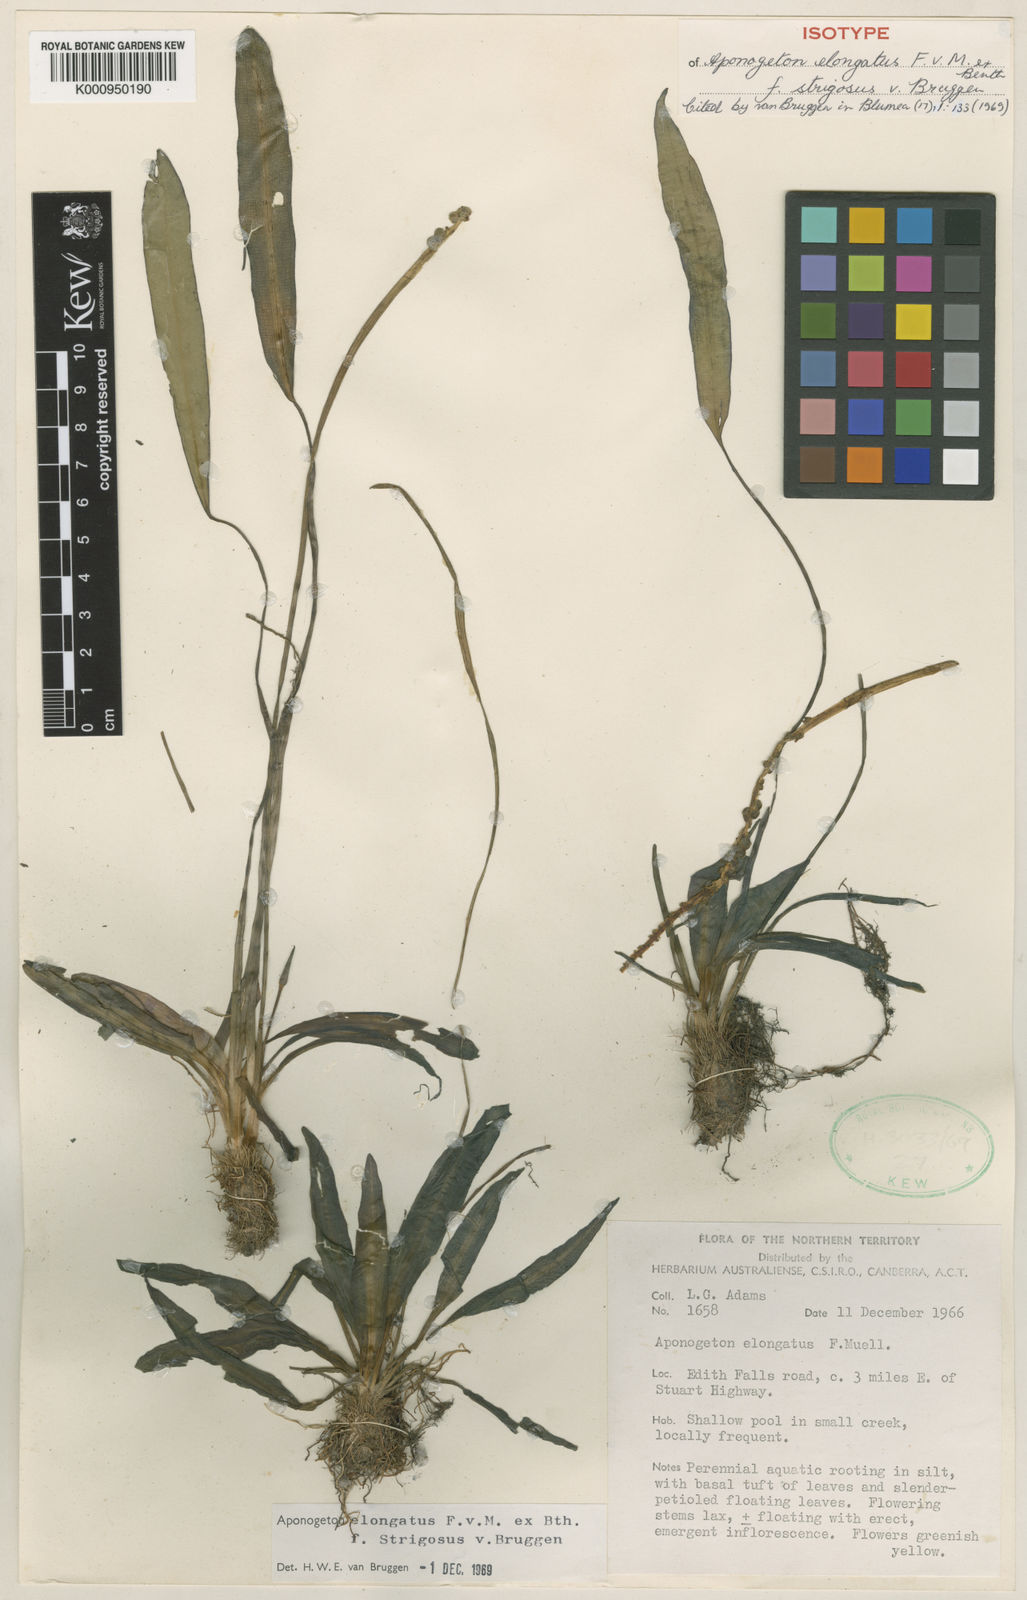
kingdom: Plantae
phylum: Tracheophyta
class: Liliopsida
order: Alismatales
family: Aponogetonaceae
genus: Aponogeton
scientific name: Aponogeton elongatus
